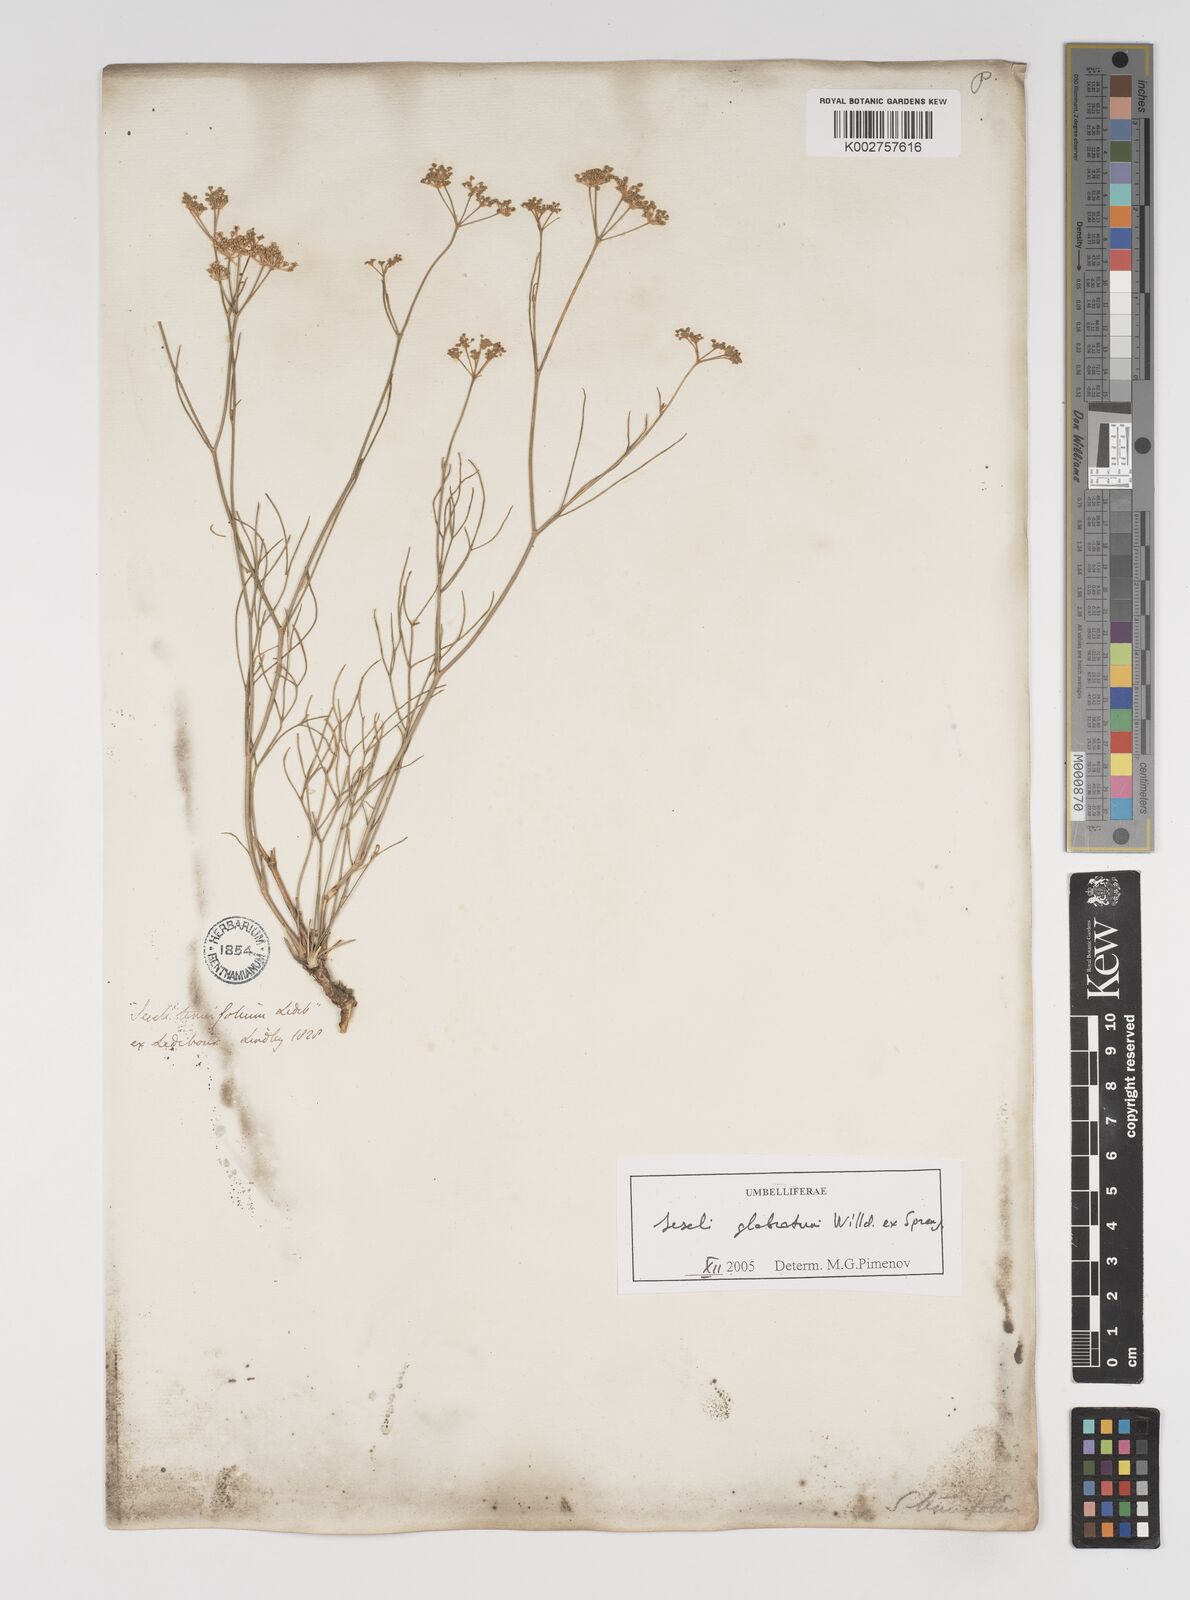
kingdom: Plantae
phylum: Tracheophyta
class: Magnoliopsida
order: Apiales
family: Apiaceae
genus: Seseli
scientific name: Seseli glabratum
